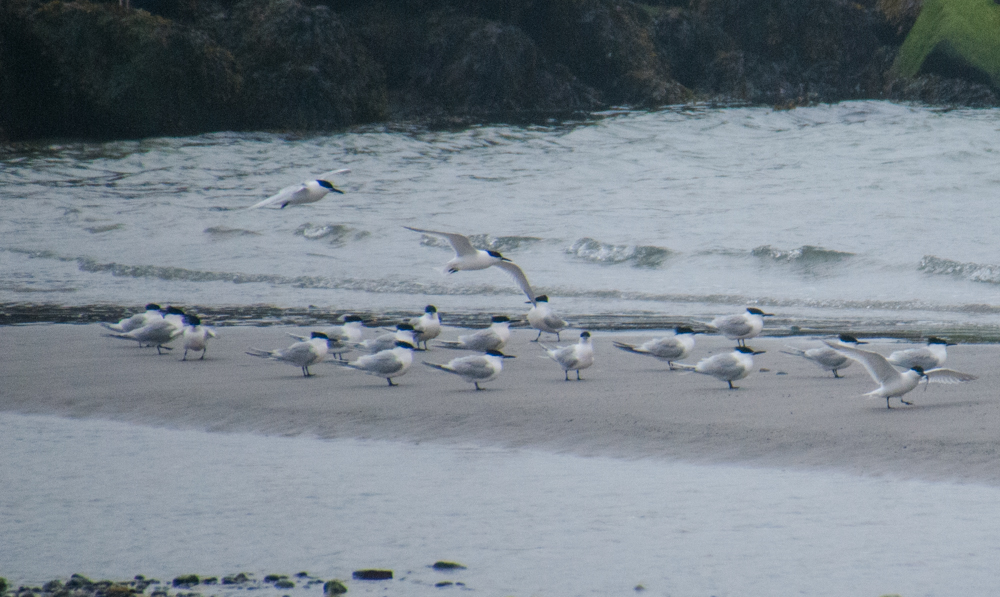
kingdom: Animalia
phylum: Chordata
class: Aves
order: Charadriiformes
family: Laridae
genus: Thalasseus
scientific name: Thalasseus sandvicensis
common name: Sandwich tern
